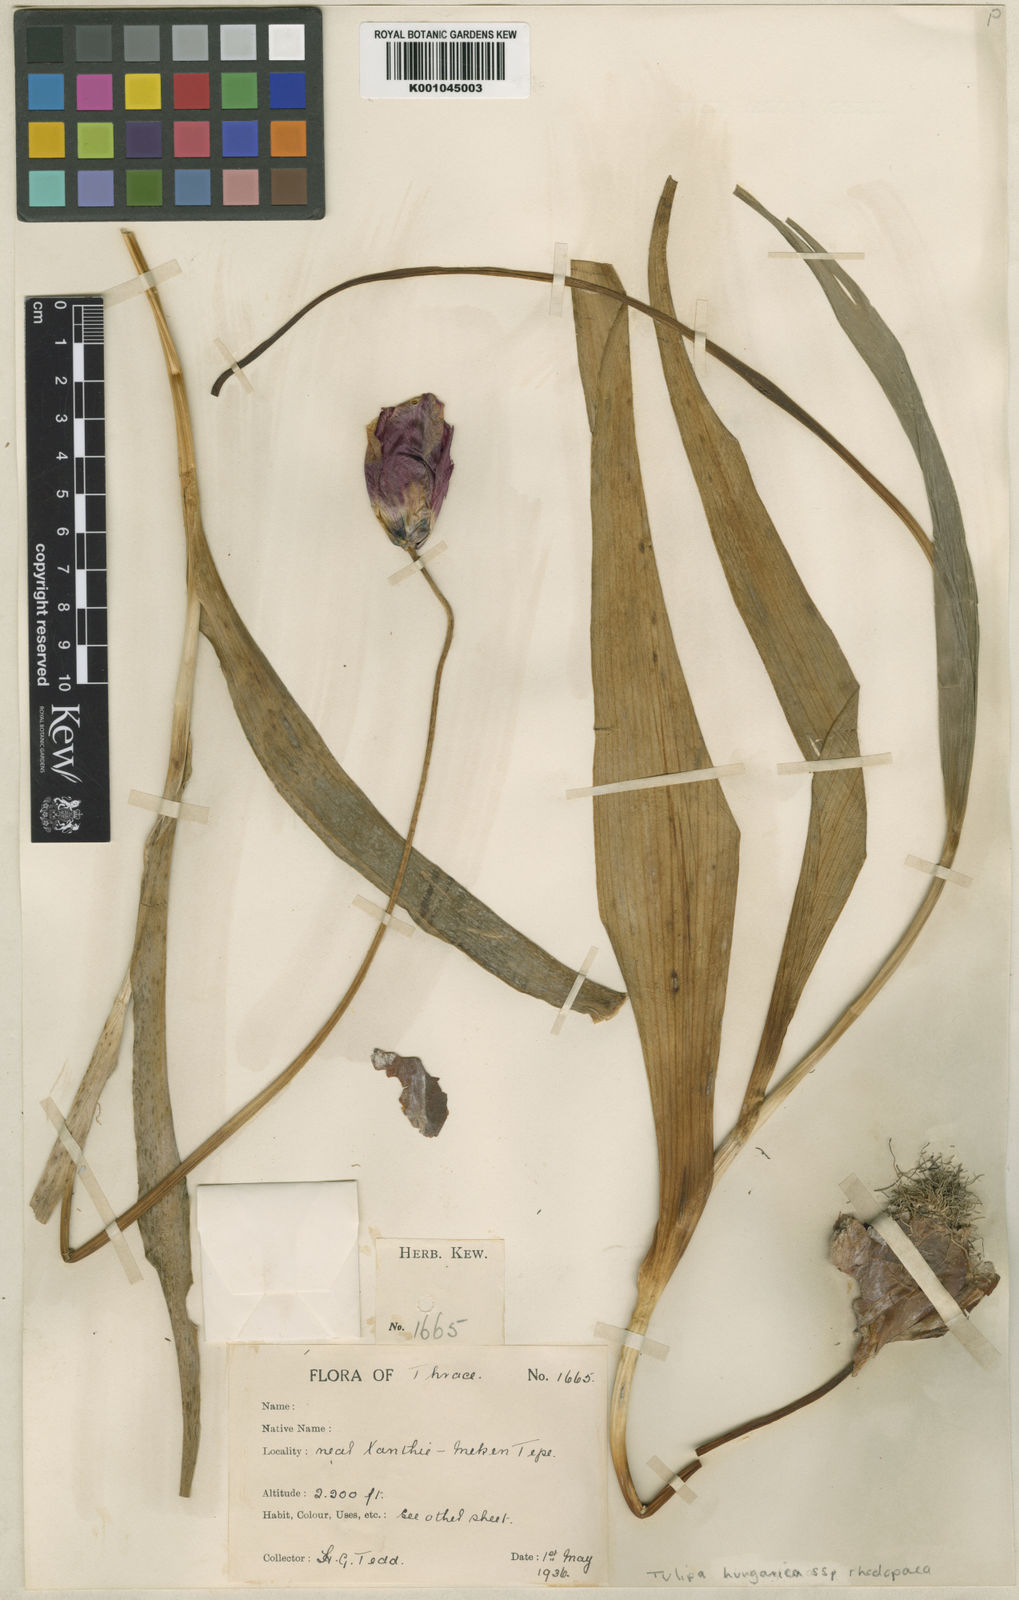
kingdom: Plantae
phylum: Tracheophyta
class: Liliopsida
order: Liliales
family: Liliaceae
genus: Tulipa
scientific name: Tulipa hungarica
